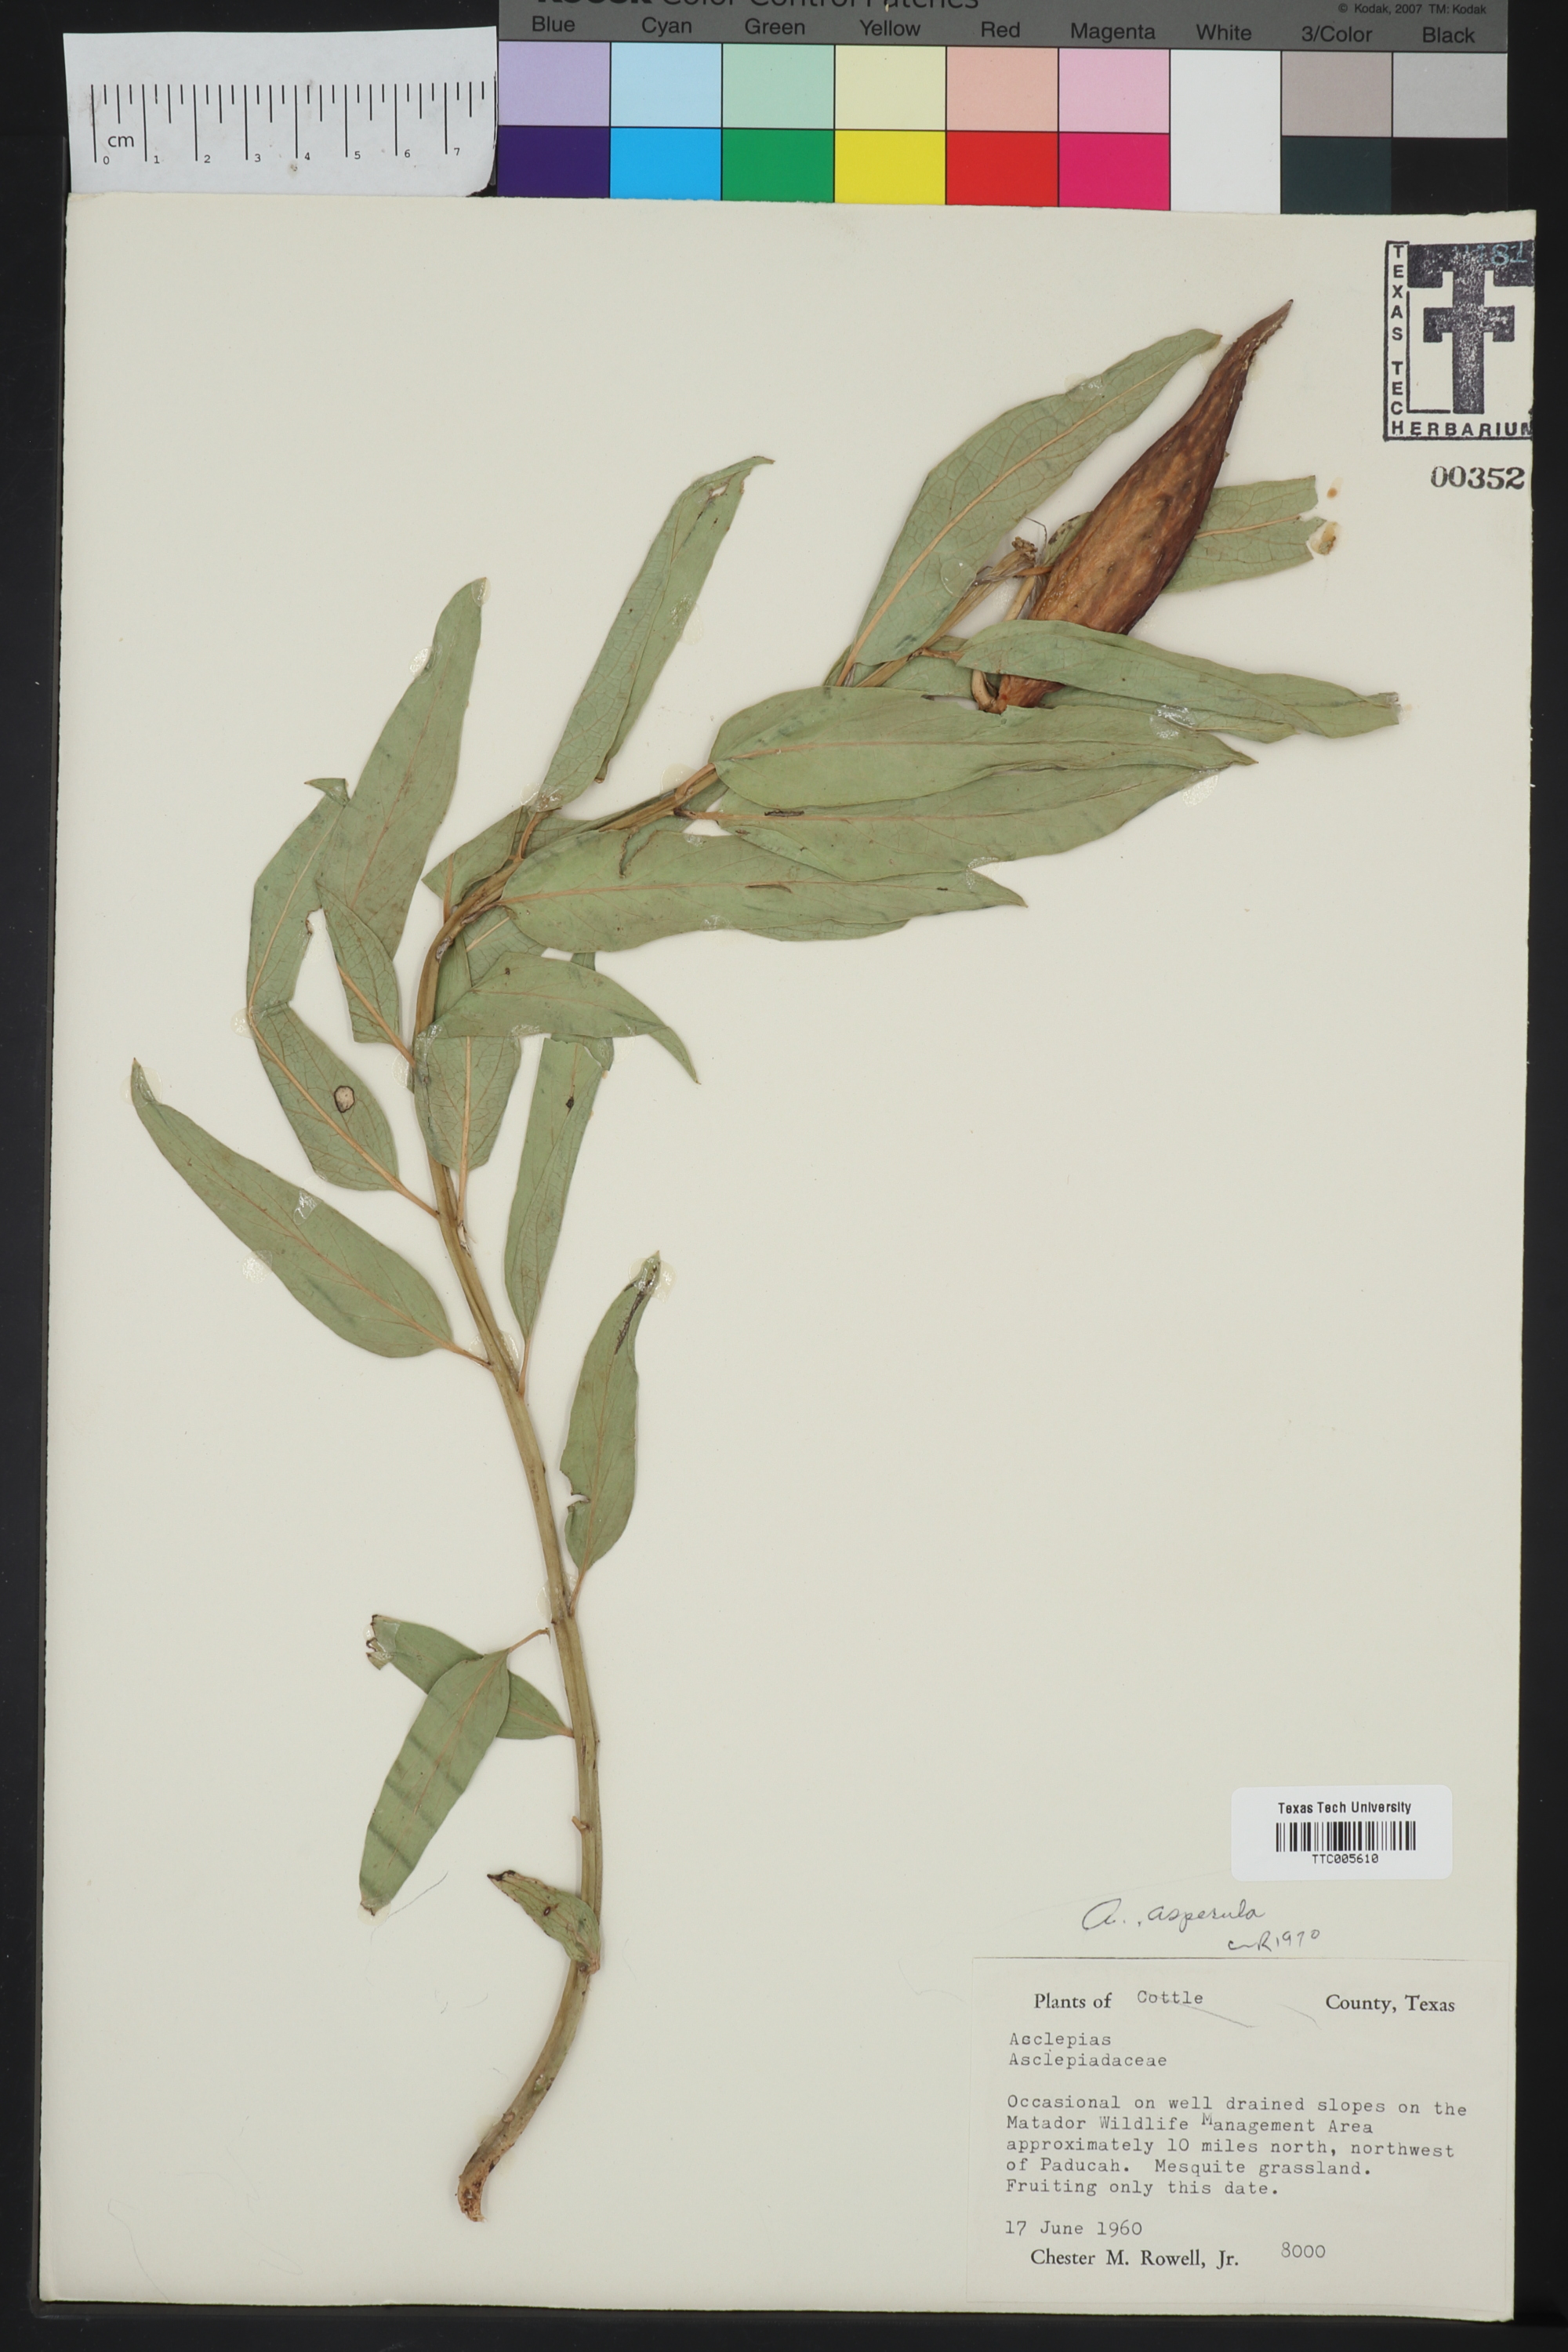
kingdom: Plantae
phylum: Tracheophyta
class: Magnoliopsida
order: Gentianales
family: Apocynaceae
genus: Asclepias
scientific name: Asclepias asperula
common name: Antelope horns
